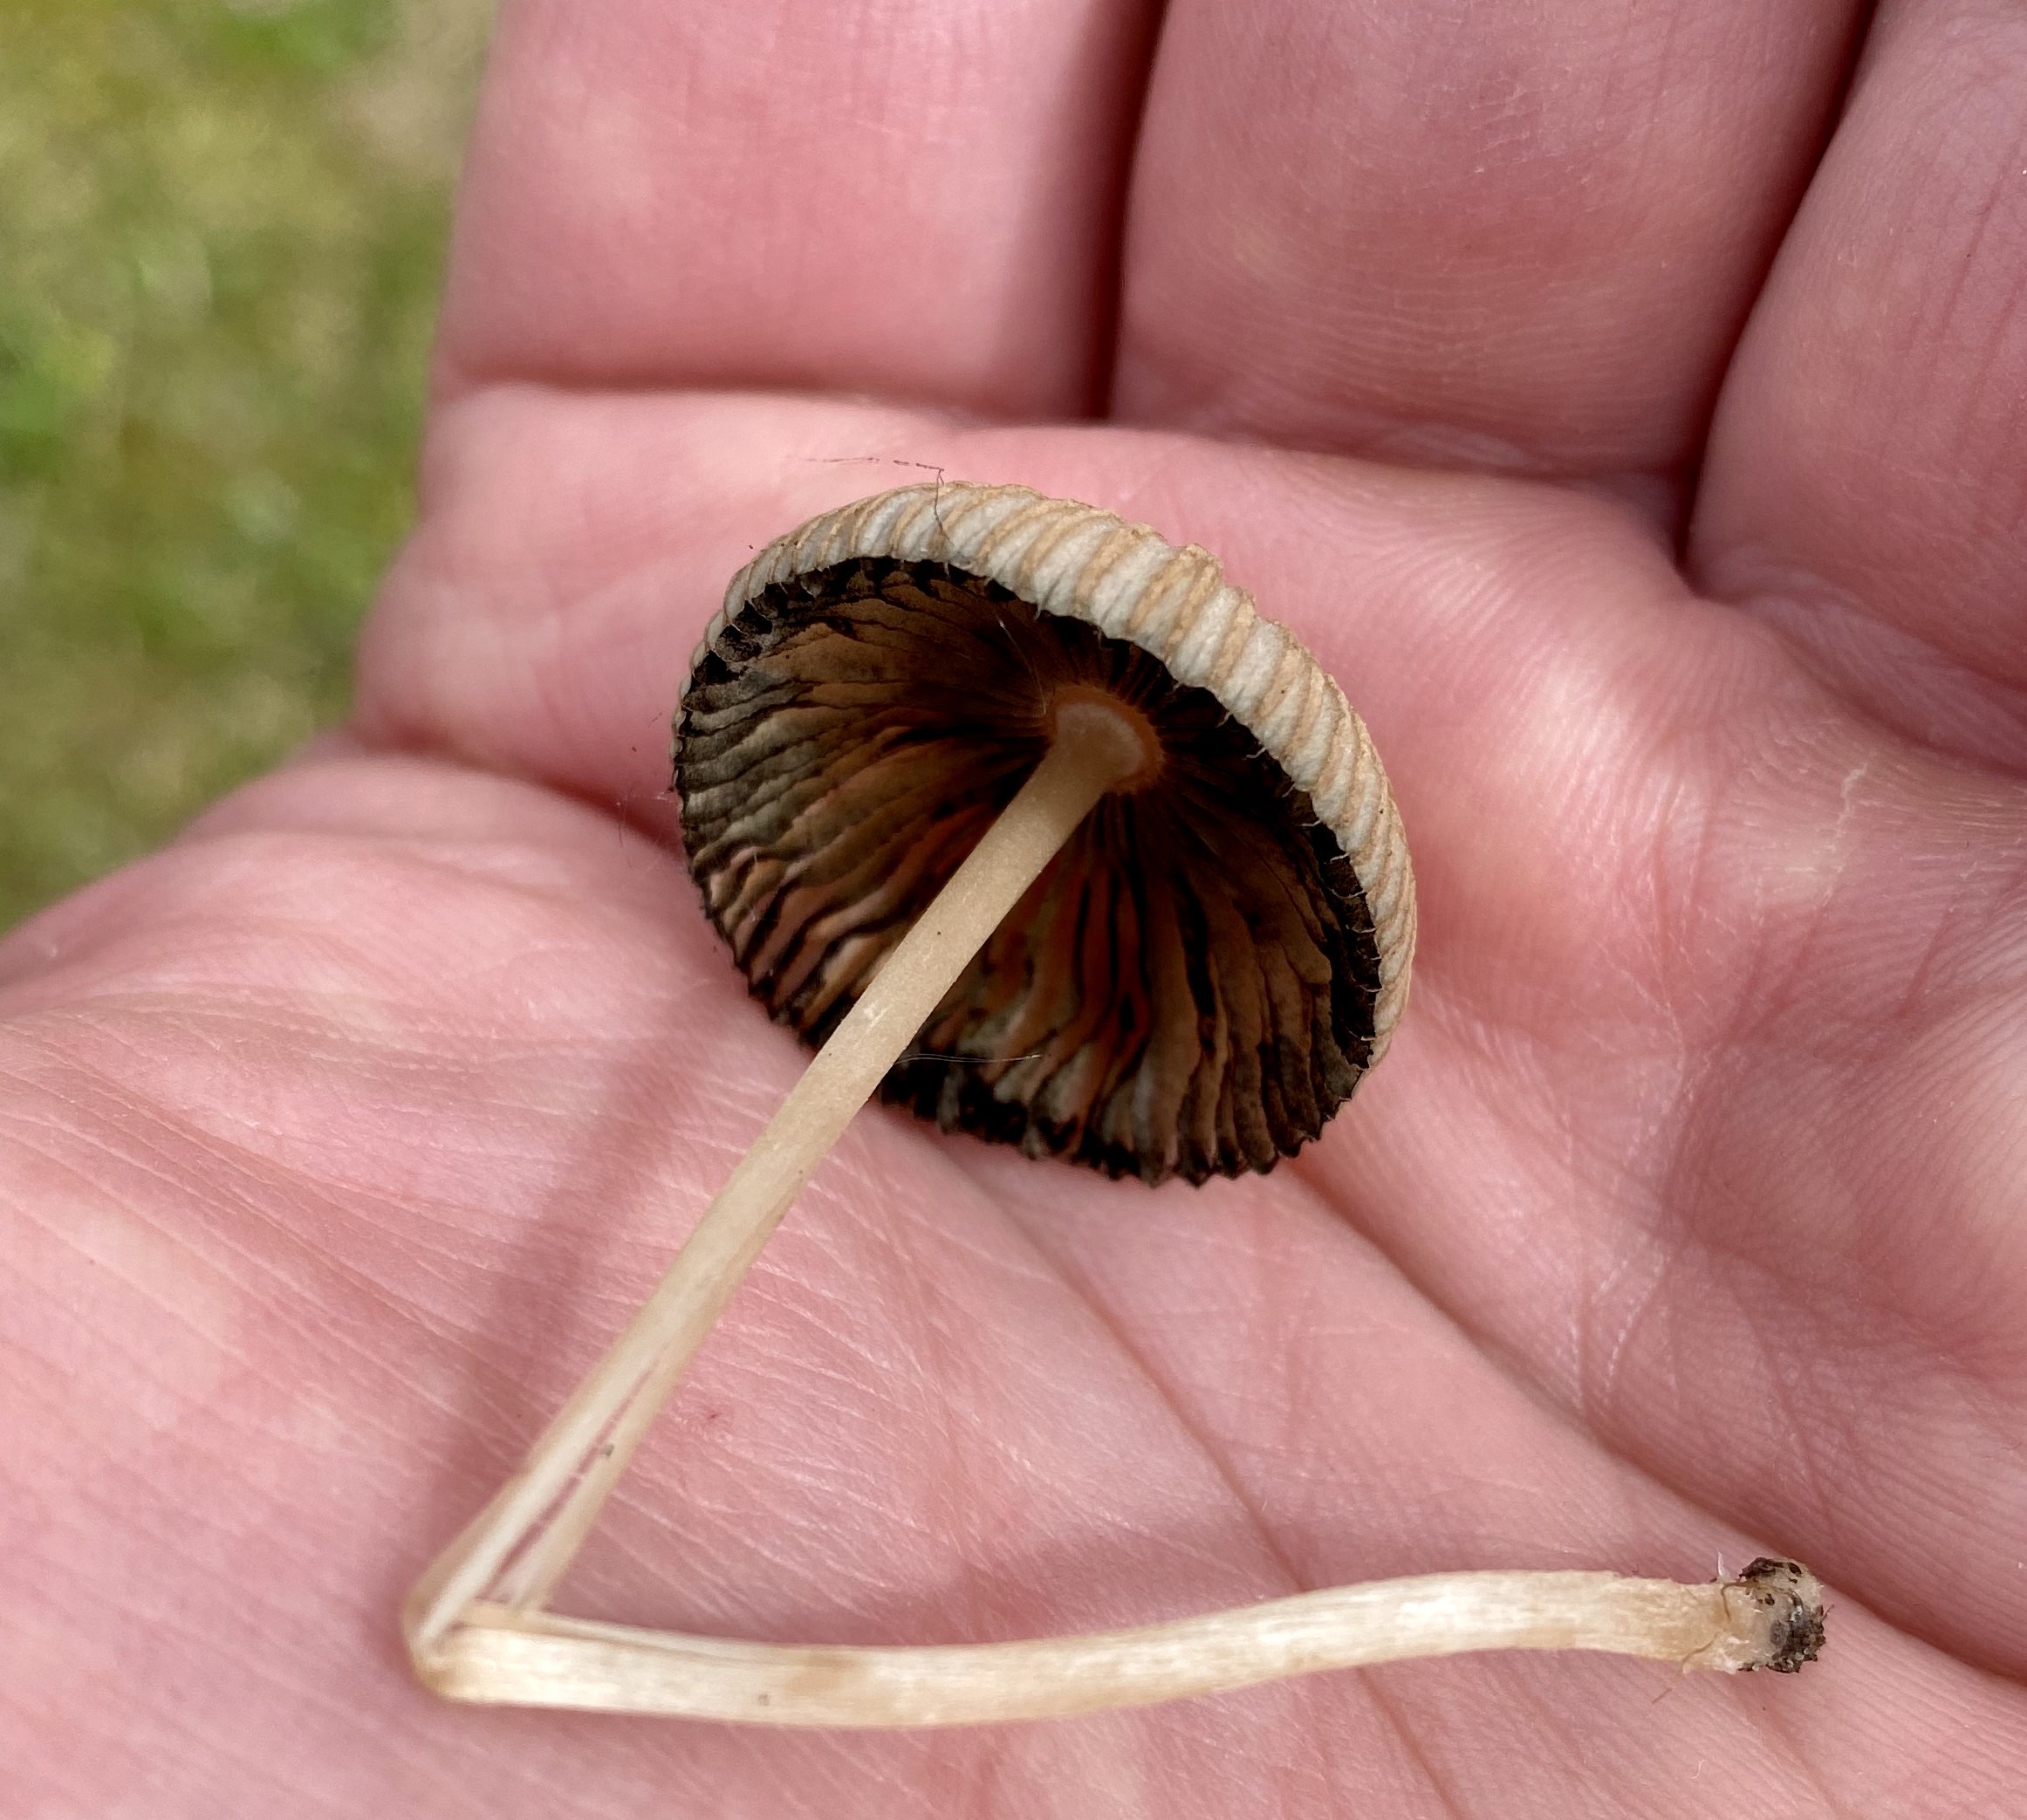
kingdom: Fungi
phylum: Basidiomycota
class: Agaricomycetes
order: Agaricales
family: Psathyrellaceae
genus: Parasola
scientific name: Parasola
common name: hjulhat
